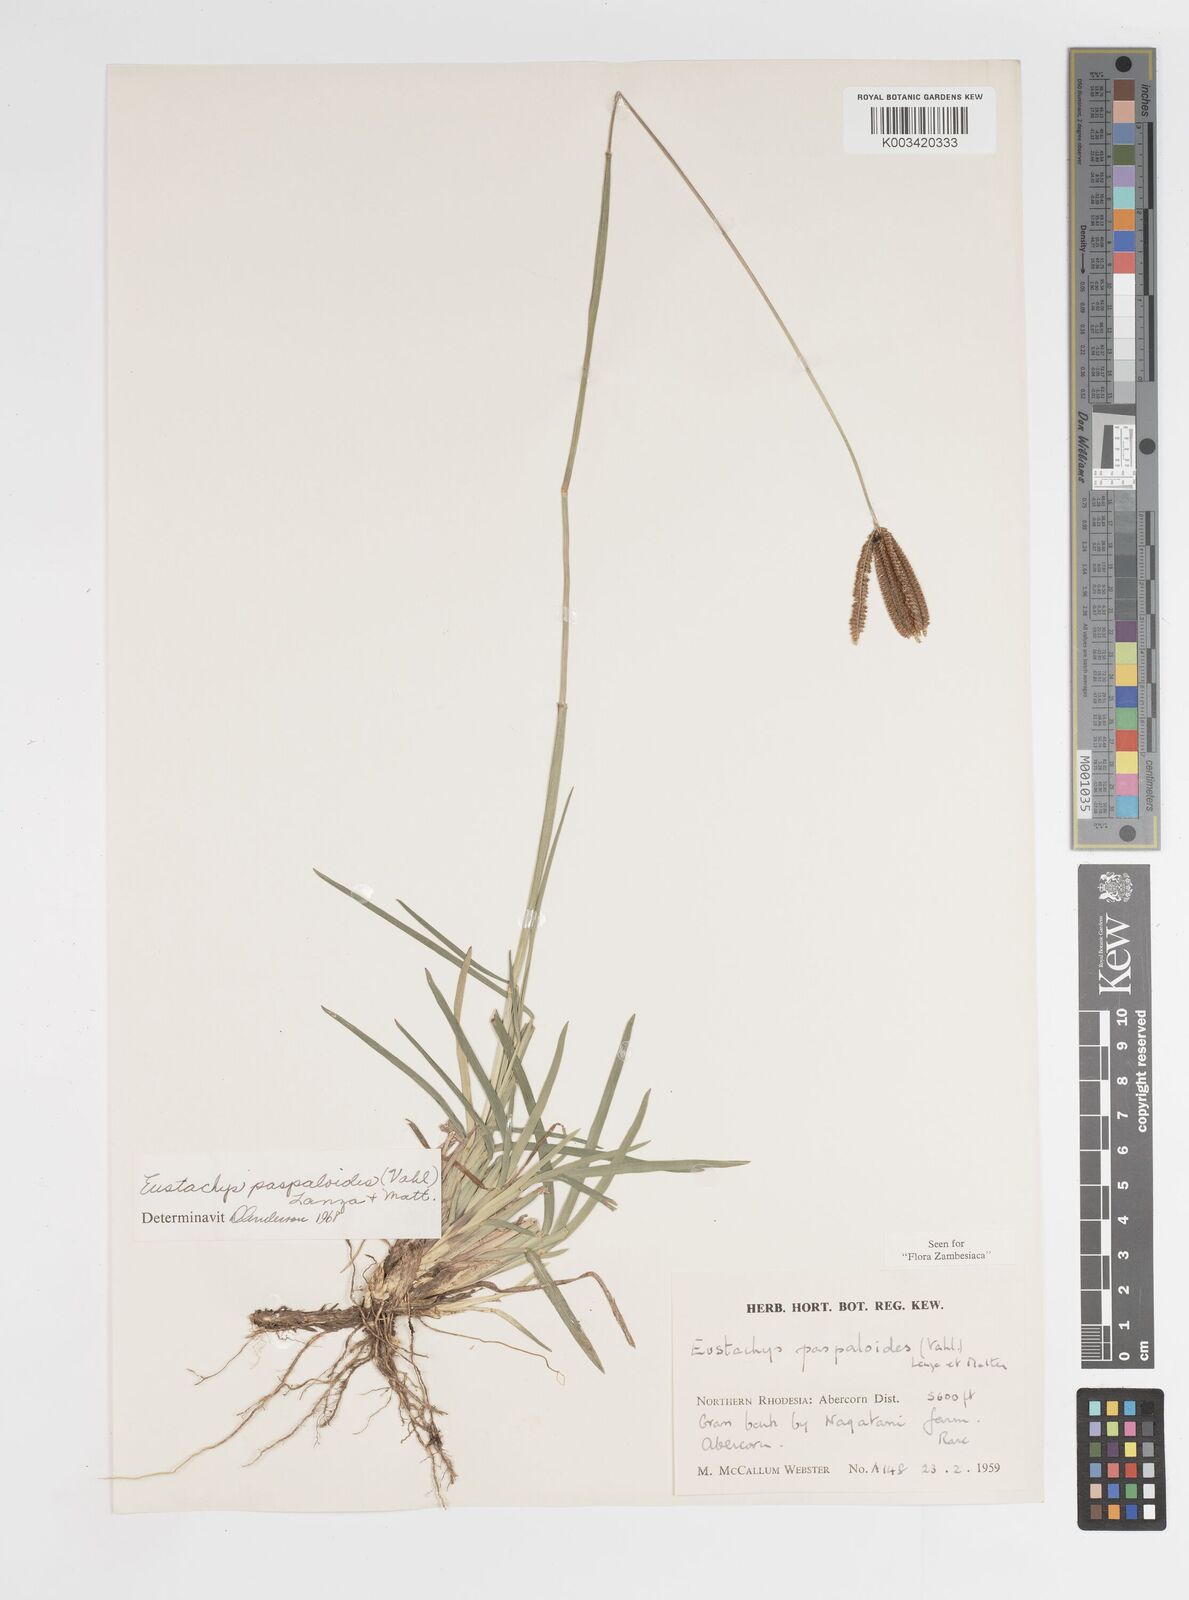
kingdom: Plantae
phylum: Tracheophyta
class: Liliopsida
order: Poales
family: Poaceae
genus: Eustachys
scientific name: Eustachys paspaloides
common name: Caribbean fingergrass
